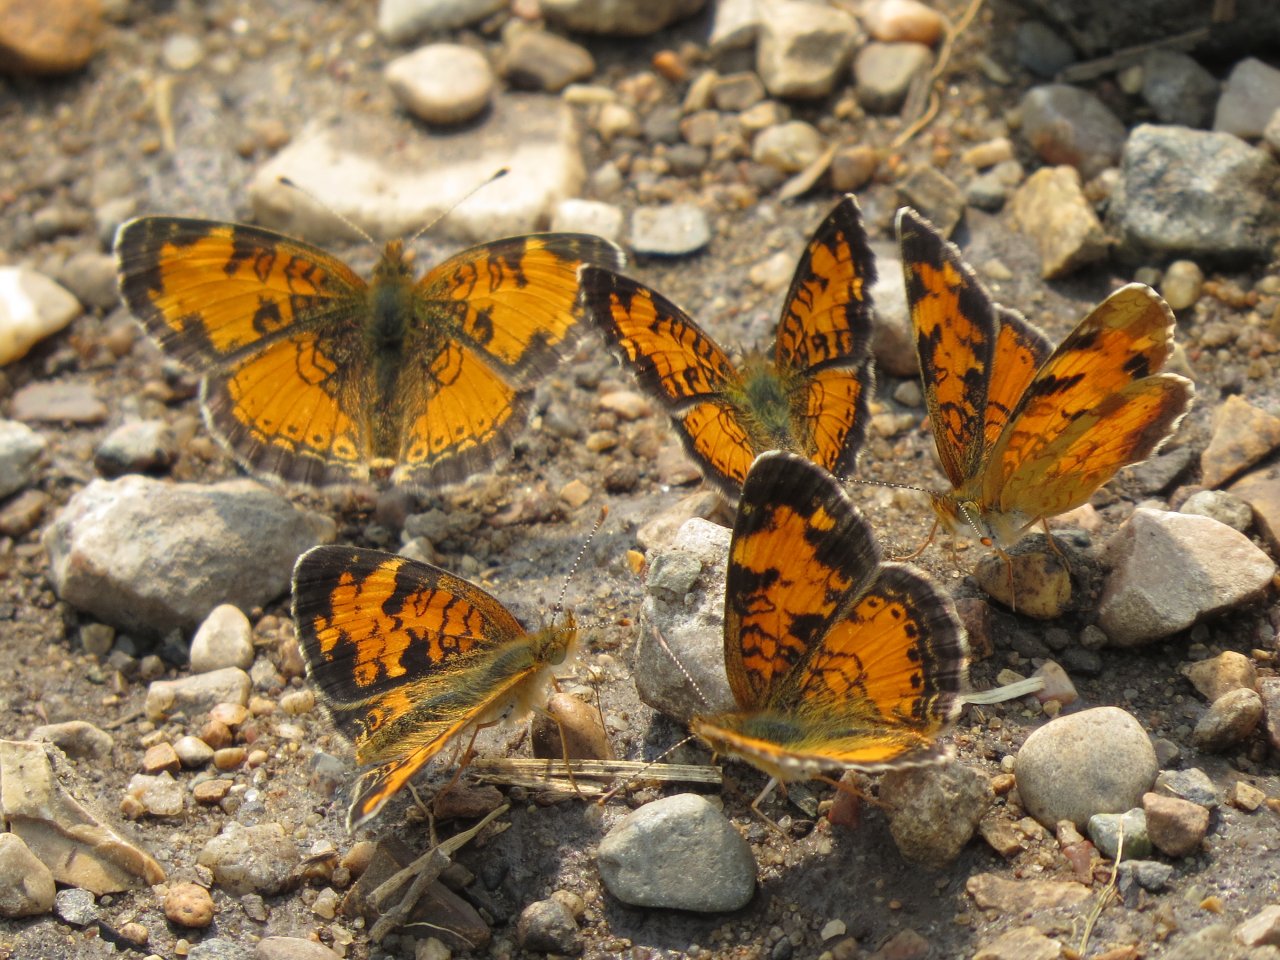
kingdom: Animalia
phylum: Arthropoda
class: Insecta
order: Lepidoptera
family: Nymphalidae
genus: Phyciodes
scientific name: Phyciodes tharos
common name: Northern Crescent
